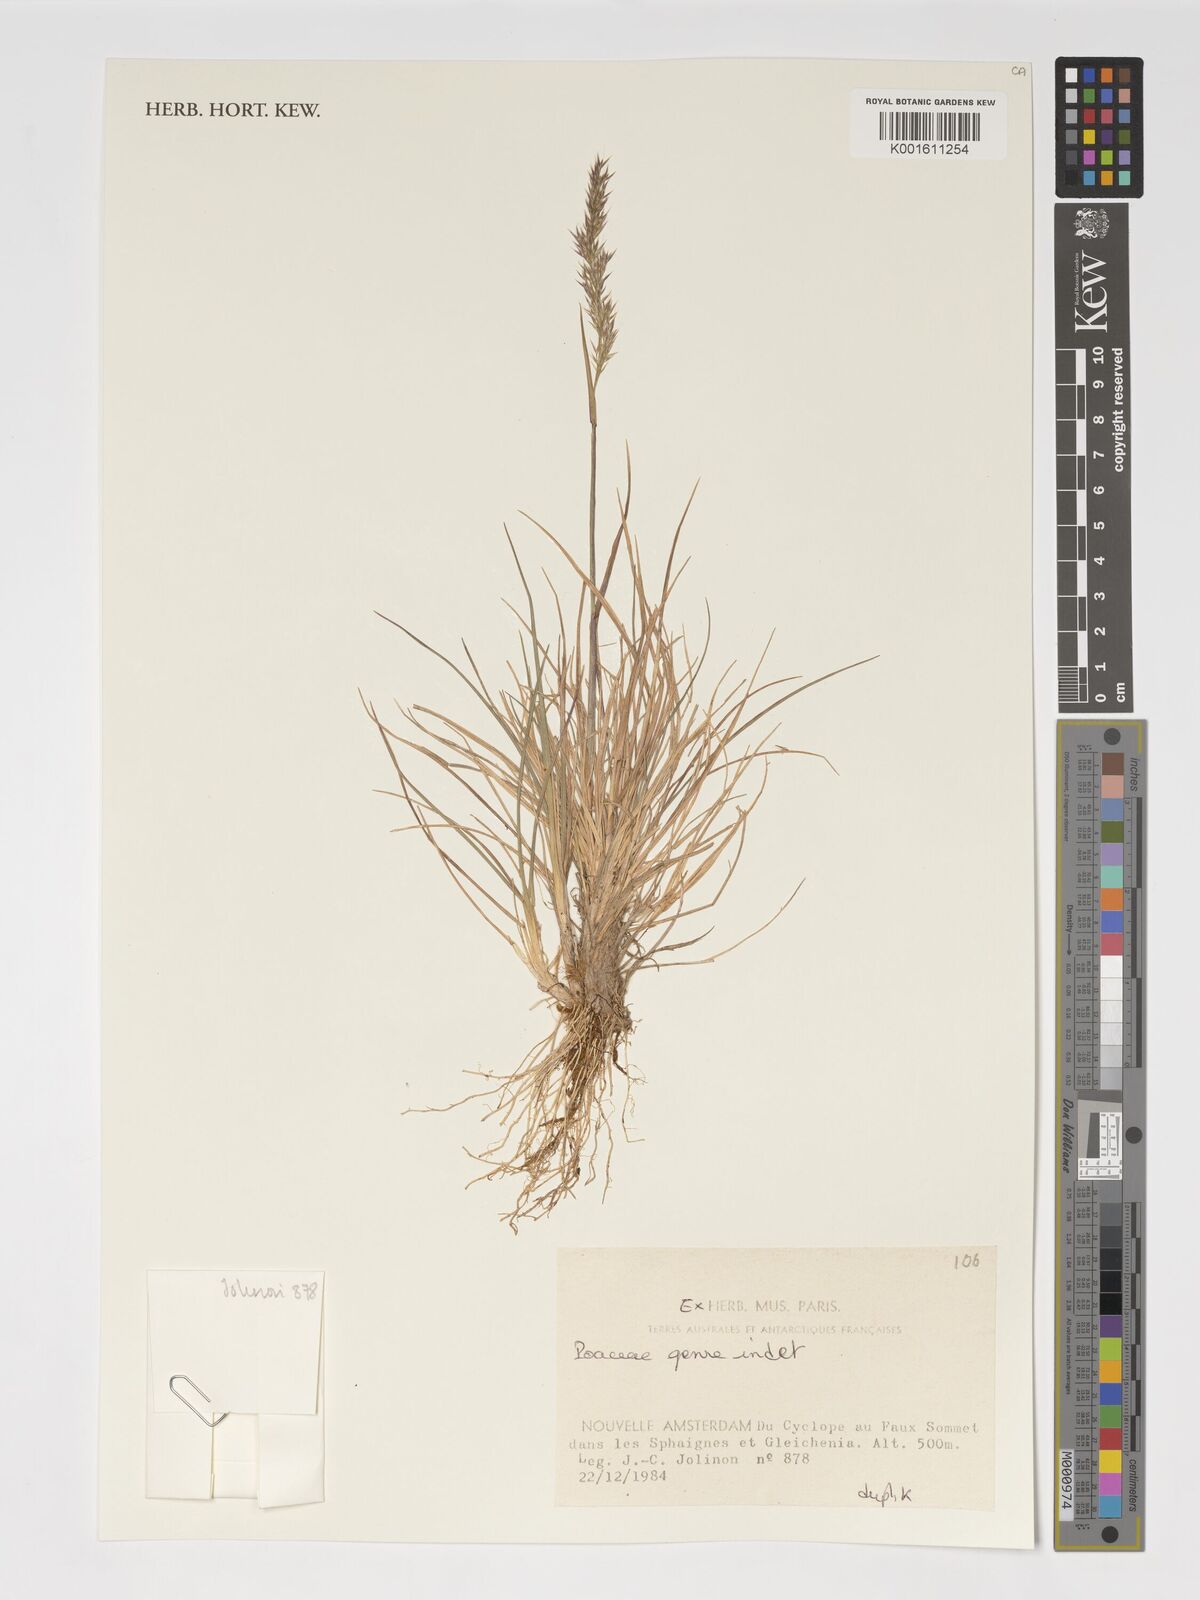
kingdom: Plantae
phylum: Tracheophyta
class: Liliopsida
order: Poales
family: Poaceae
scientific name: Poaceae
